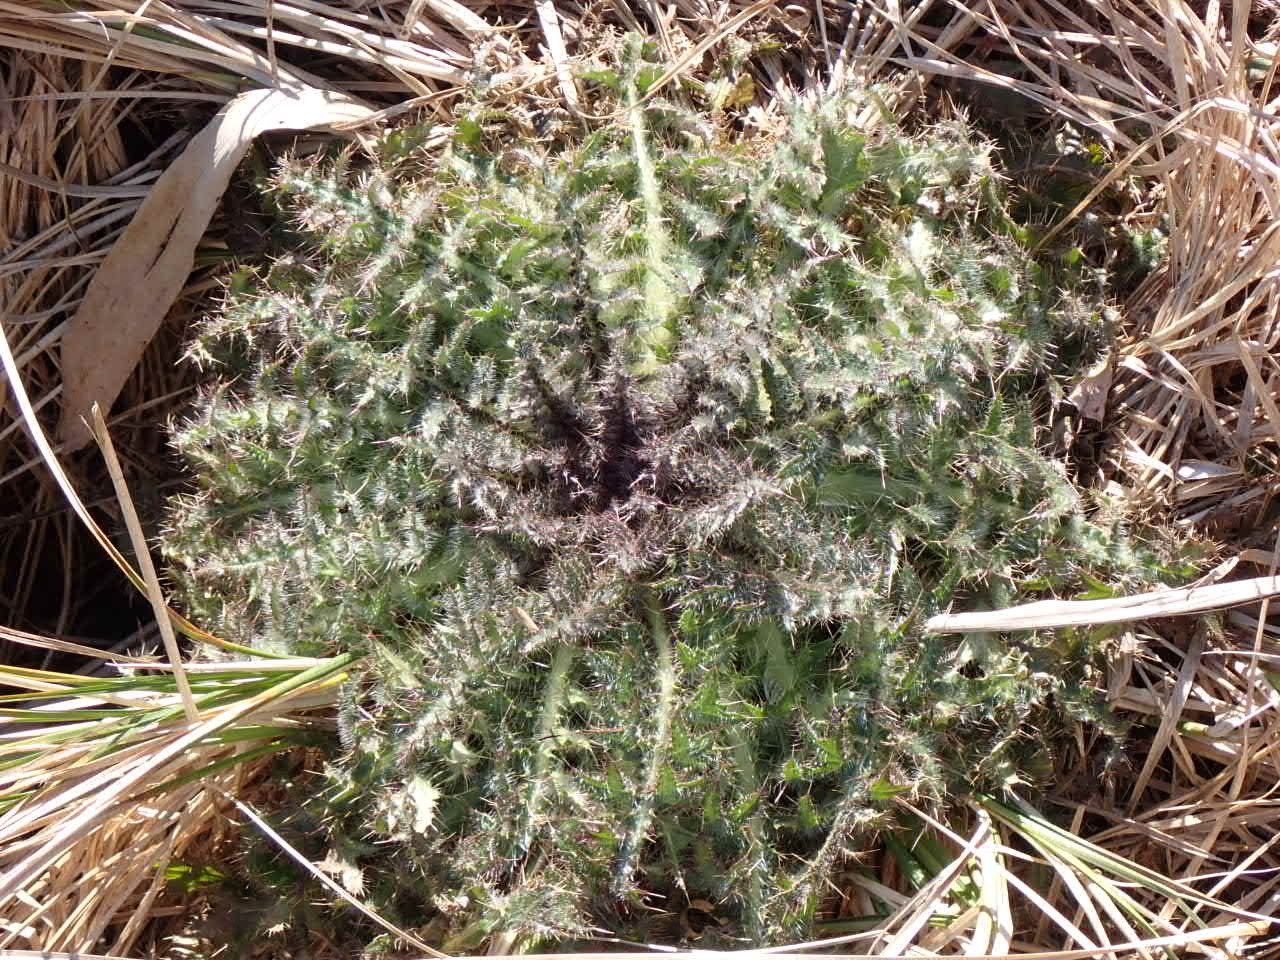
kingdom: Plantae
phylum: Tracheophyta
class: Magnoliopsida
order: Asterales
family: Asteraceae
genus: Cirsium
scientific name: Cirsium palustre
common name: Kær-tidsel
